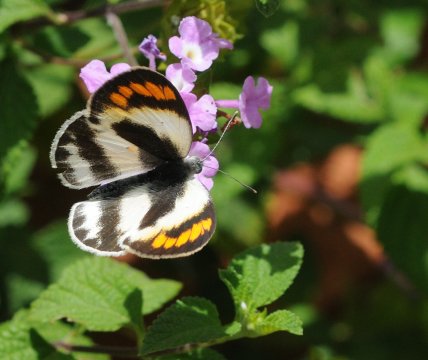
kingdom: Animalia
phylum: Arthropoda
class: Insecta
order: Lepidoptera
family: Pieridae
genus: Colotis
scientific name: Colotis euippe
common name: Round-winged Orange Tip
